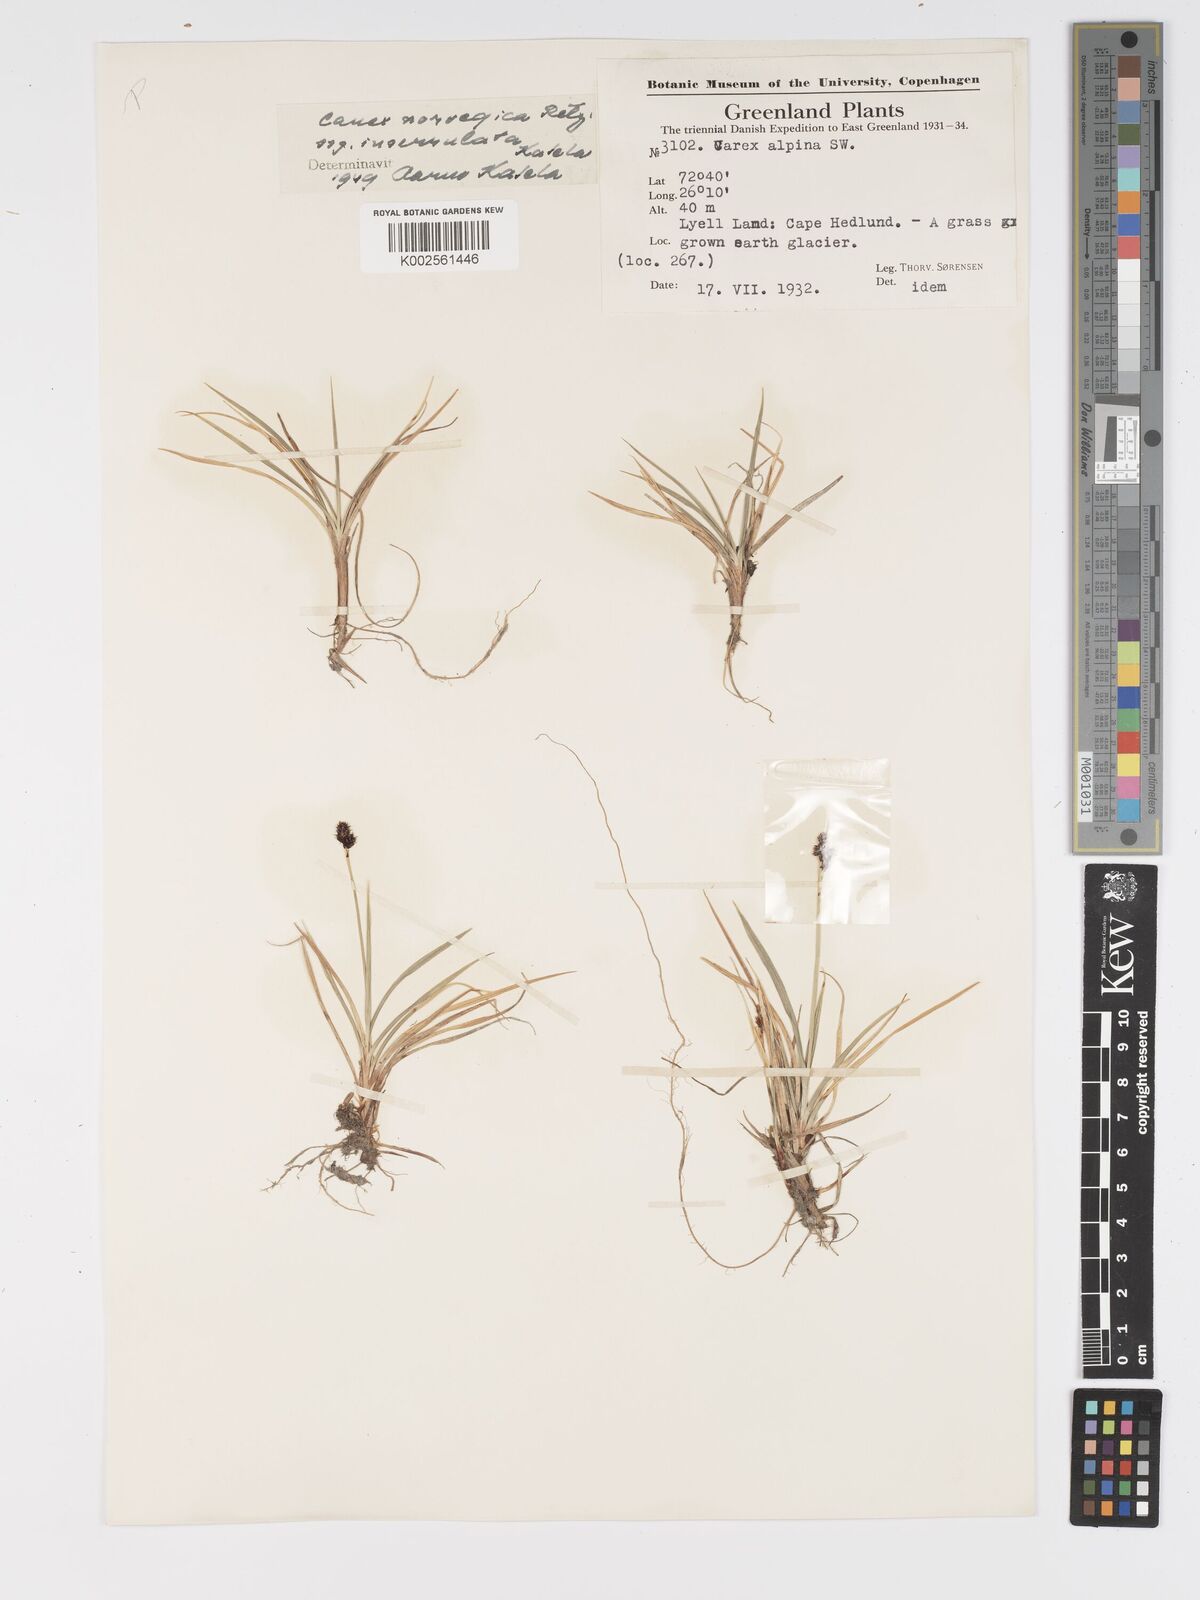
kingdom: Plantae
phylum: Tracheophyta
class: Liliopsida
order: Poales
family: Cyperaceae
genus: Carex
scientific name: Carex norvegica
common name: Close-headed alpine-sedge
